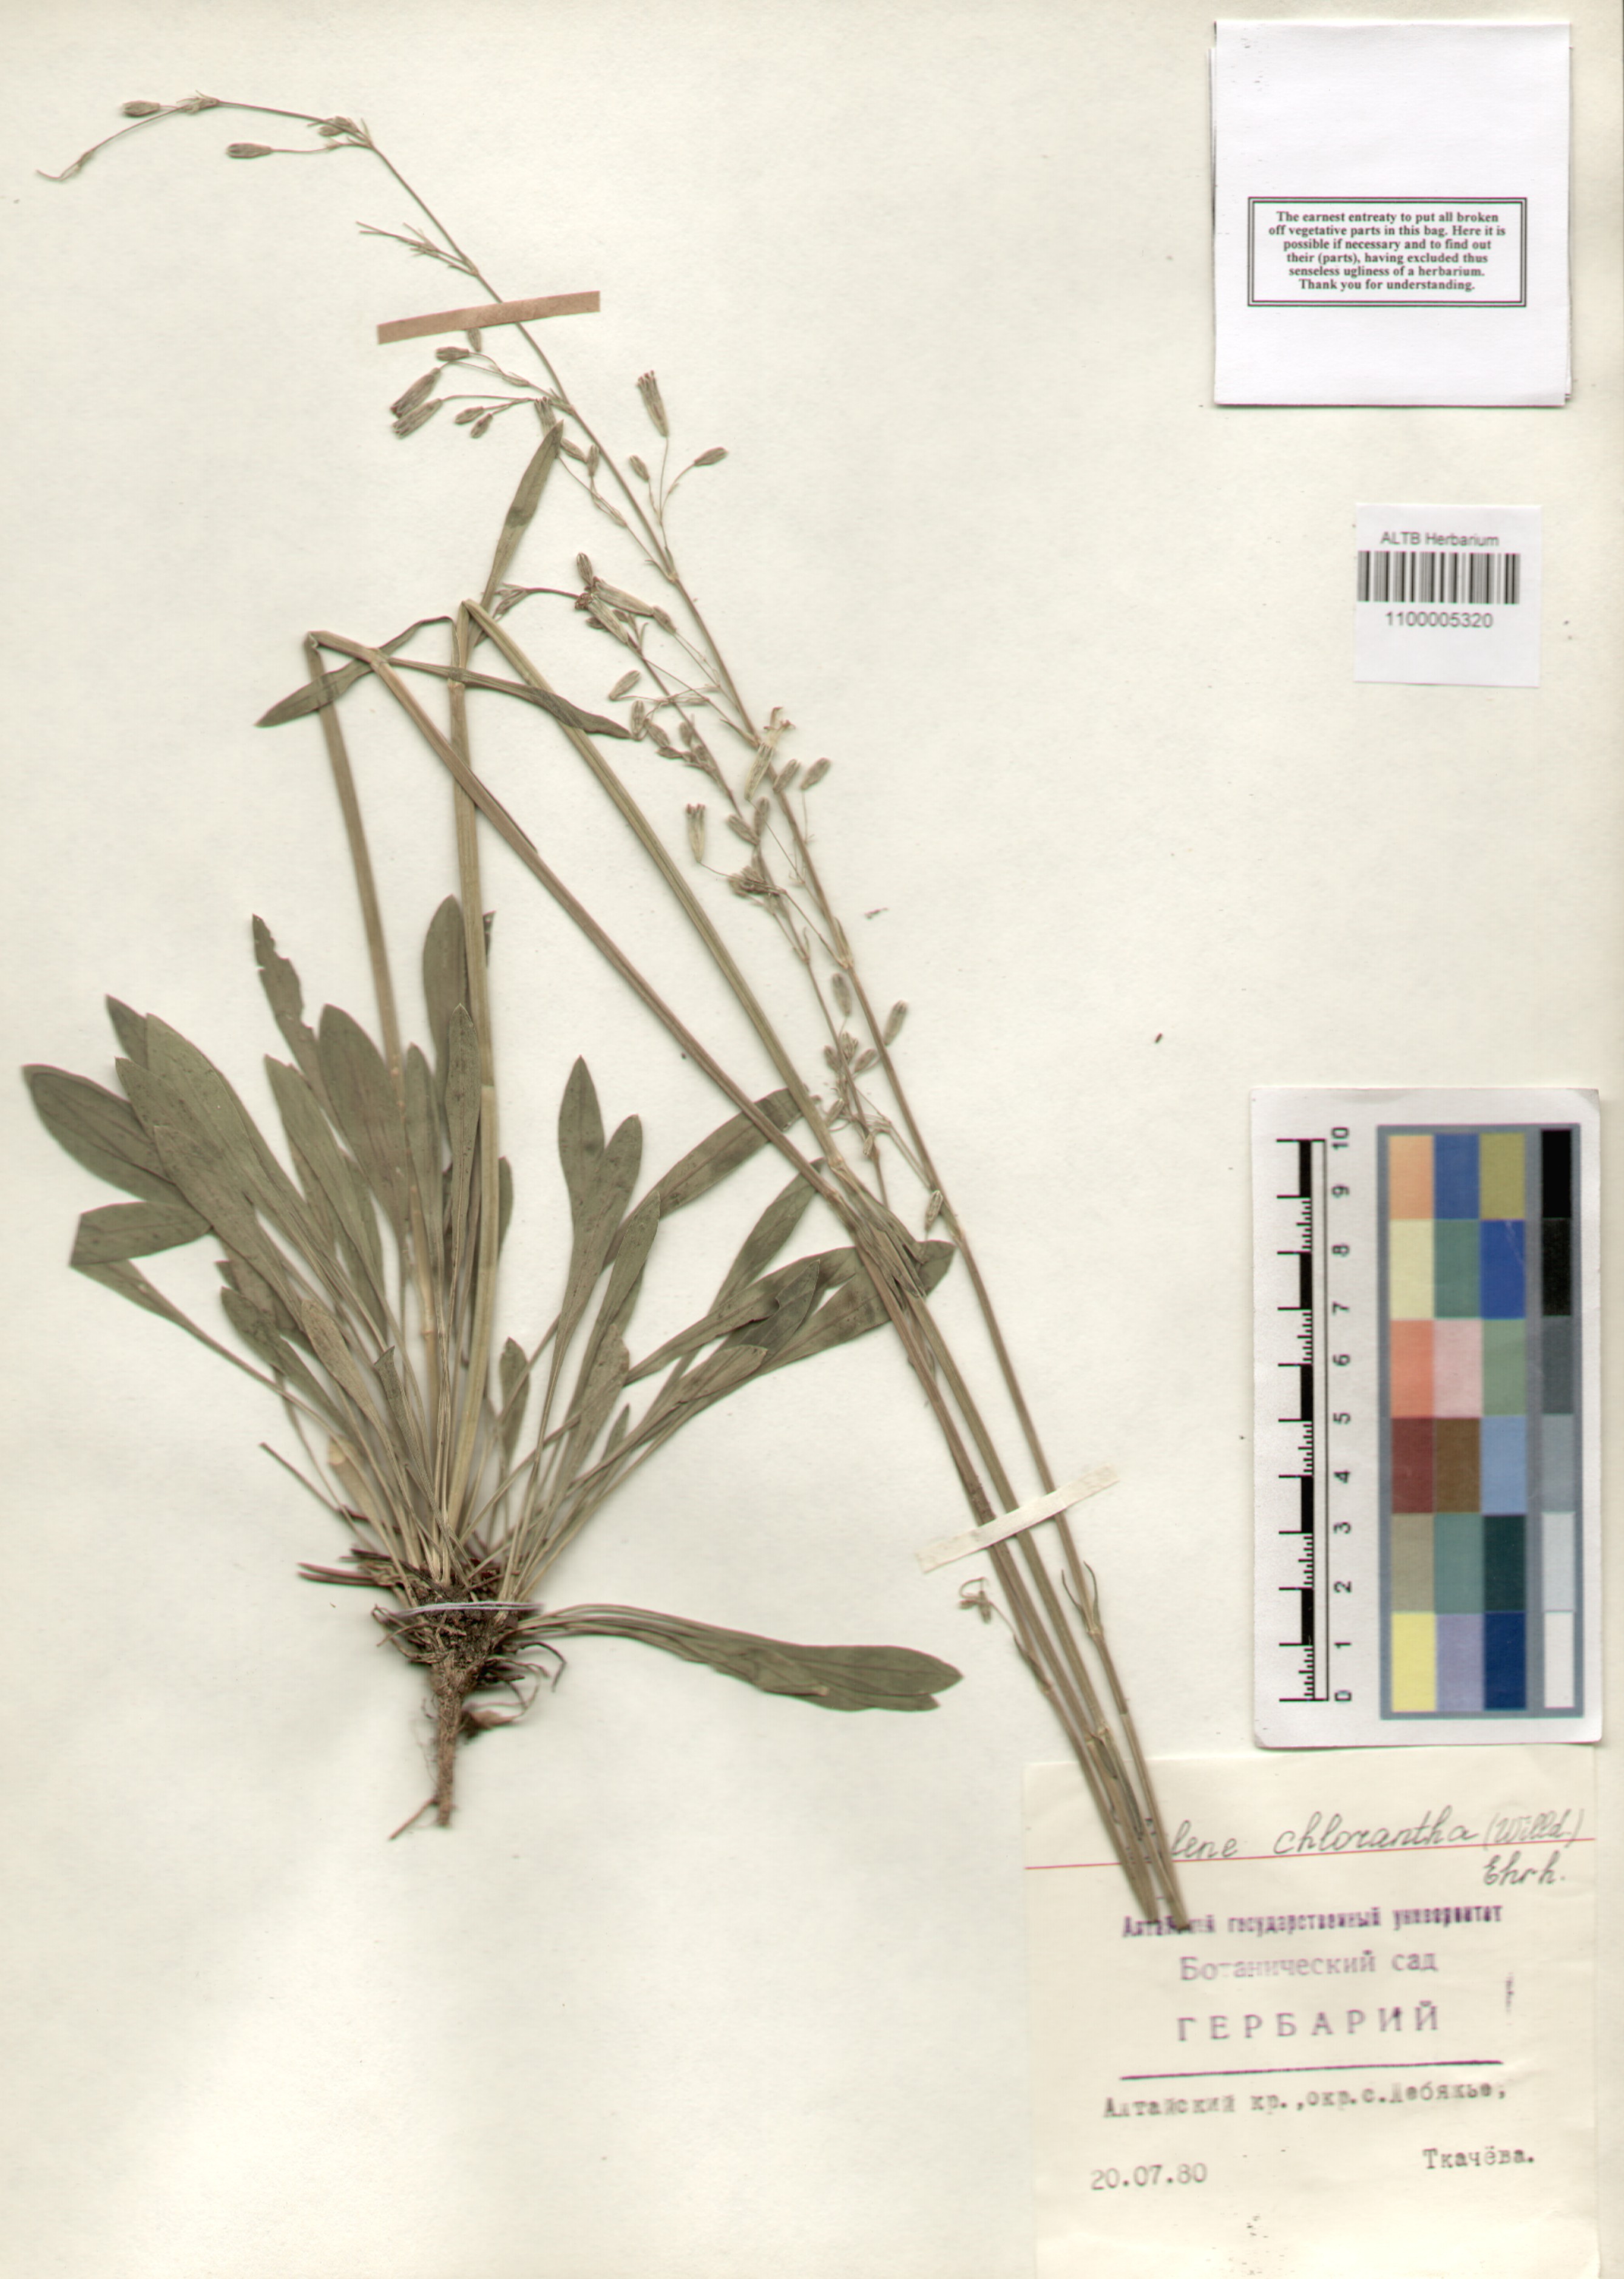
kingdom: Plantae
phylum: Tracheophyta
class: Magnoliopsida
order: Caryophyllales
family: Caryophyllaceae
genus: Silene
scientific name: Silene chlorantha
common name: Yellowgreen catchfly
